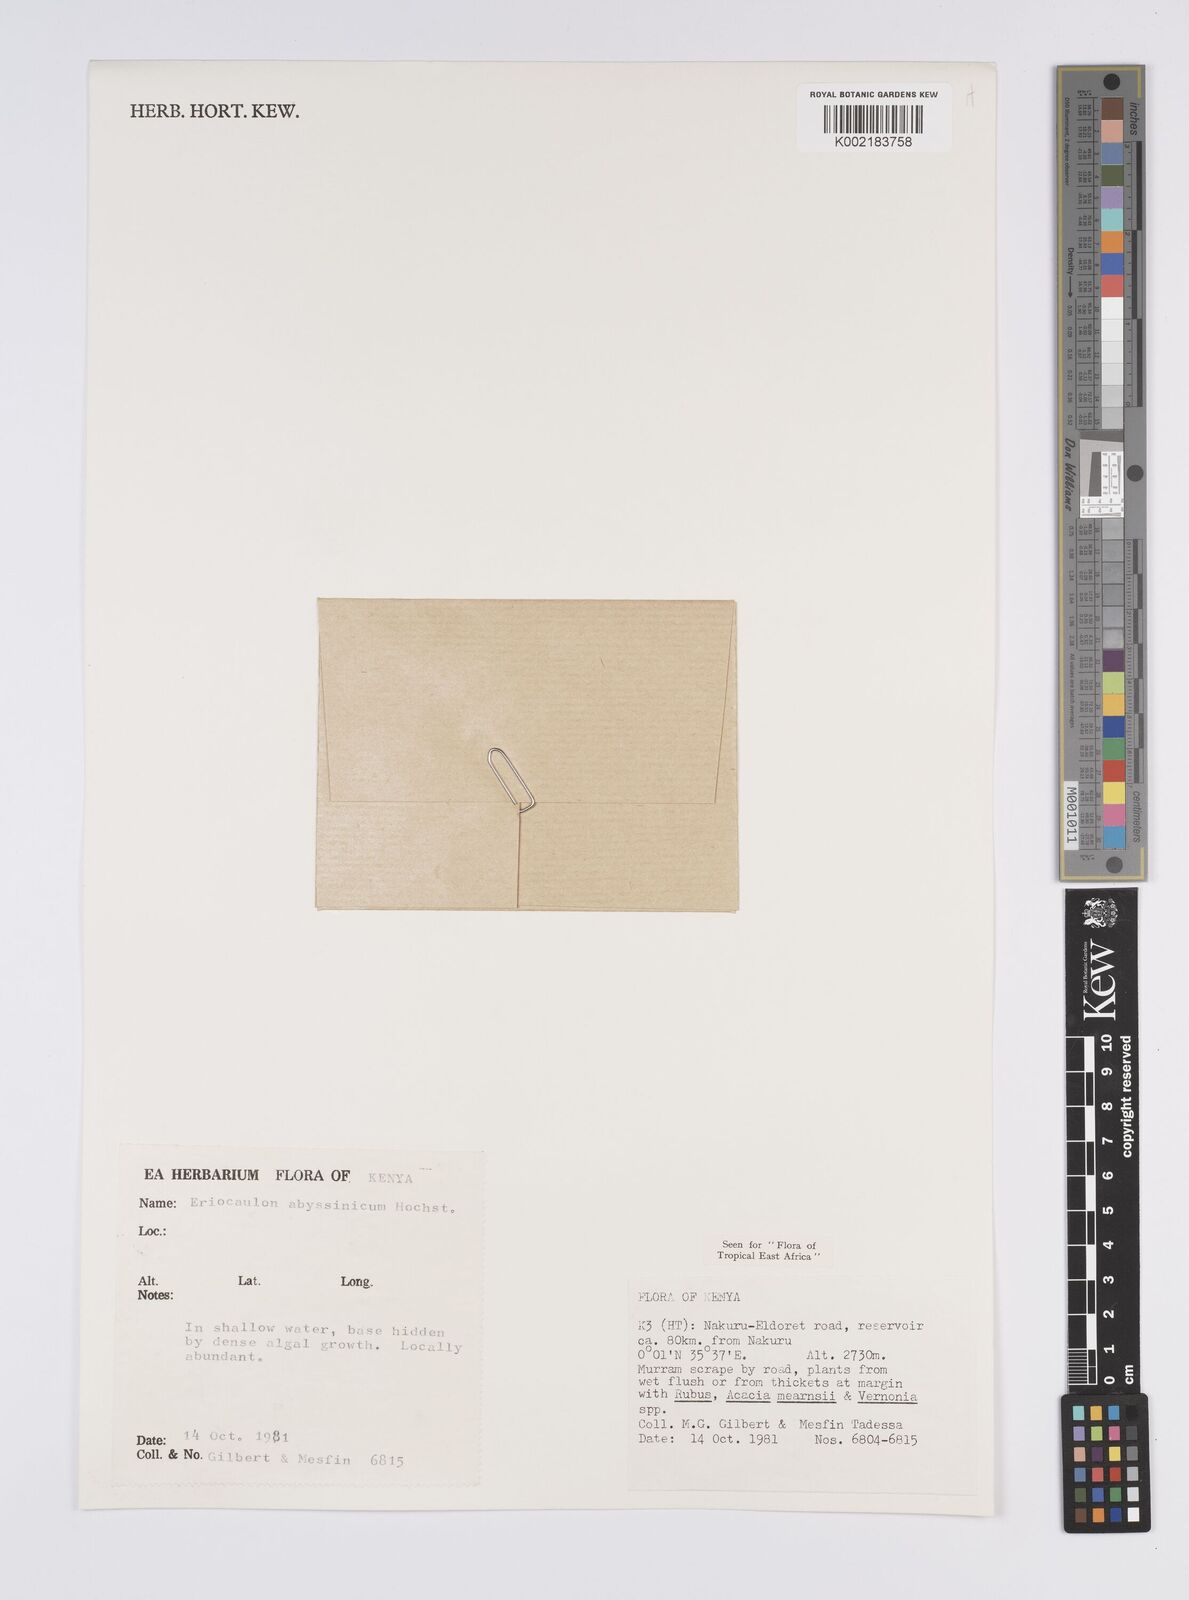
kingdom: Plantae
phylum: Tracheophyta
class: Liliopsida
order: Poales
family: Eriocaulaceae
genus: Eriocaulon
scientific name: Eriocaulon abyssinicum
